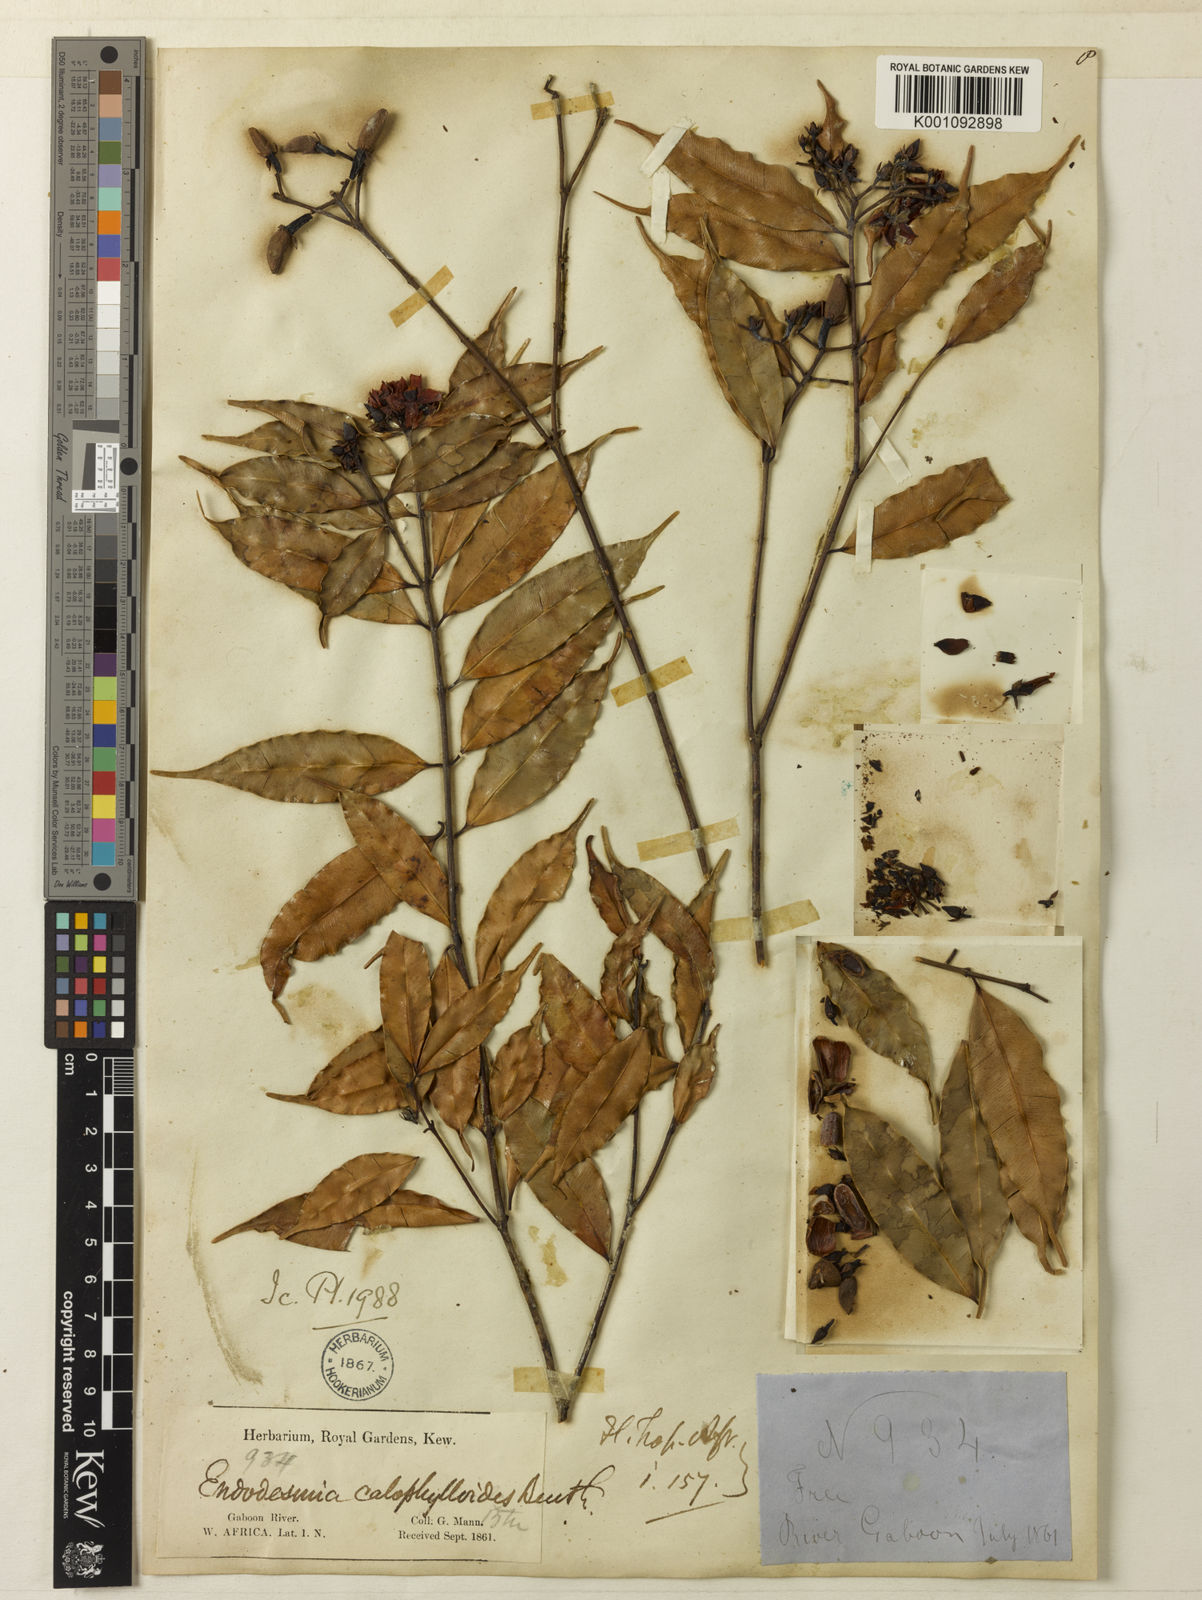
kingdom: Plantae
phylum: Tracheophyta
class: Magnoliopsida
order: Malpighiales
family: Calophyllaceae
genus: Endodesmia
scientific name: Endodesmia calophylloides
